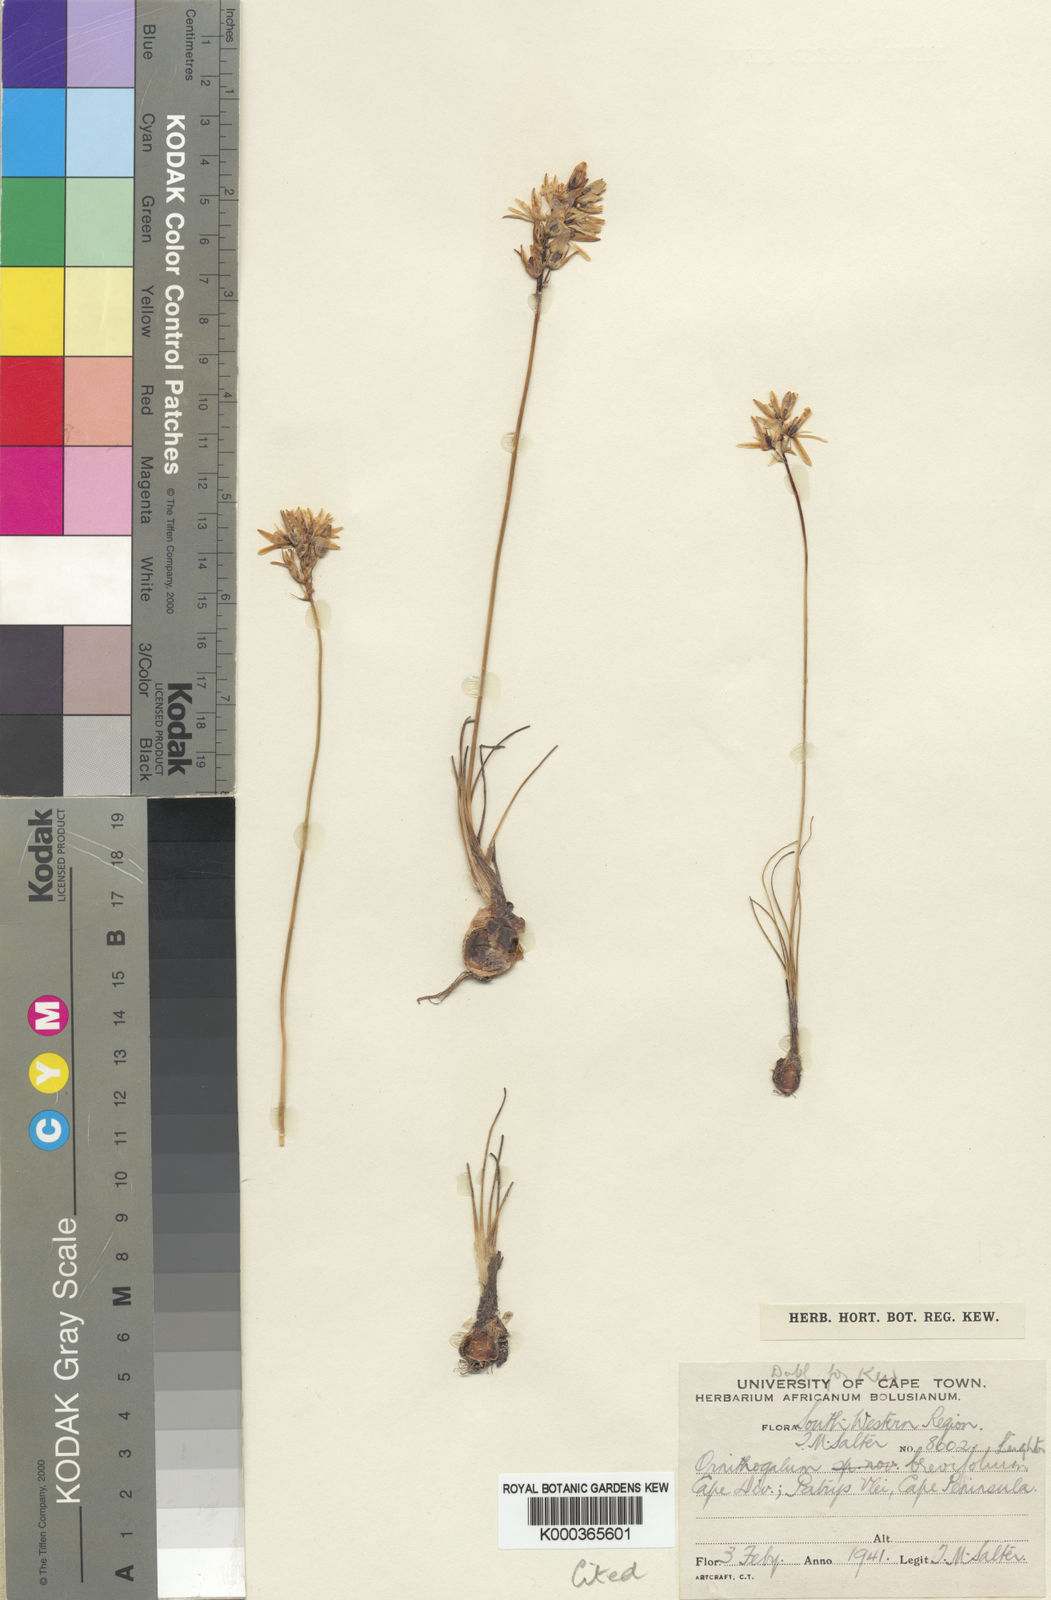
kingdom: Plantae
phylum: Tracheophyta
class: Liliopsida
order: Asparagales
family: Asparagaceae
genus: Ornithogalum
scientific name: Ornithogalum juncifolium
